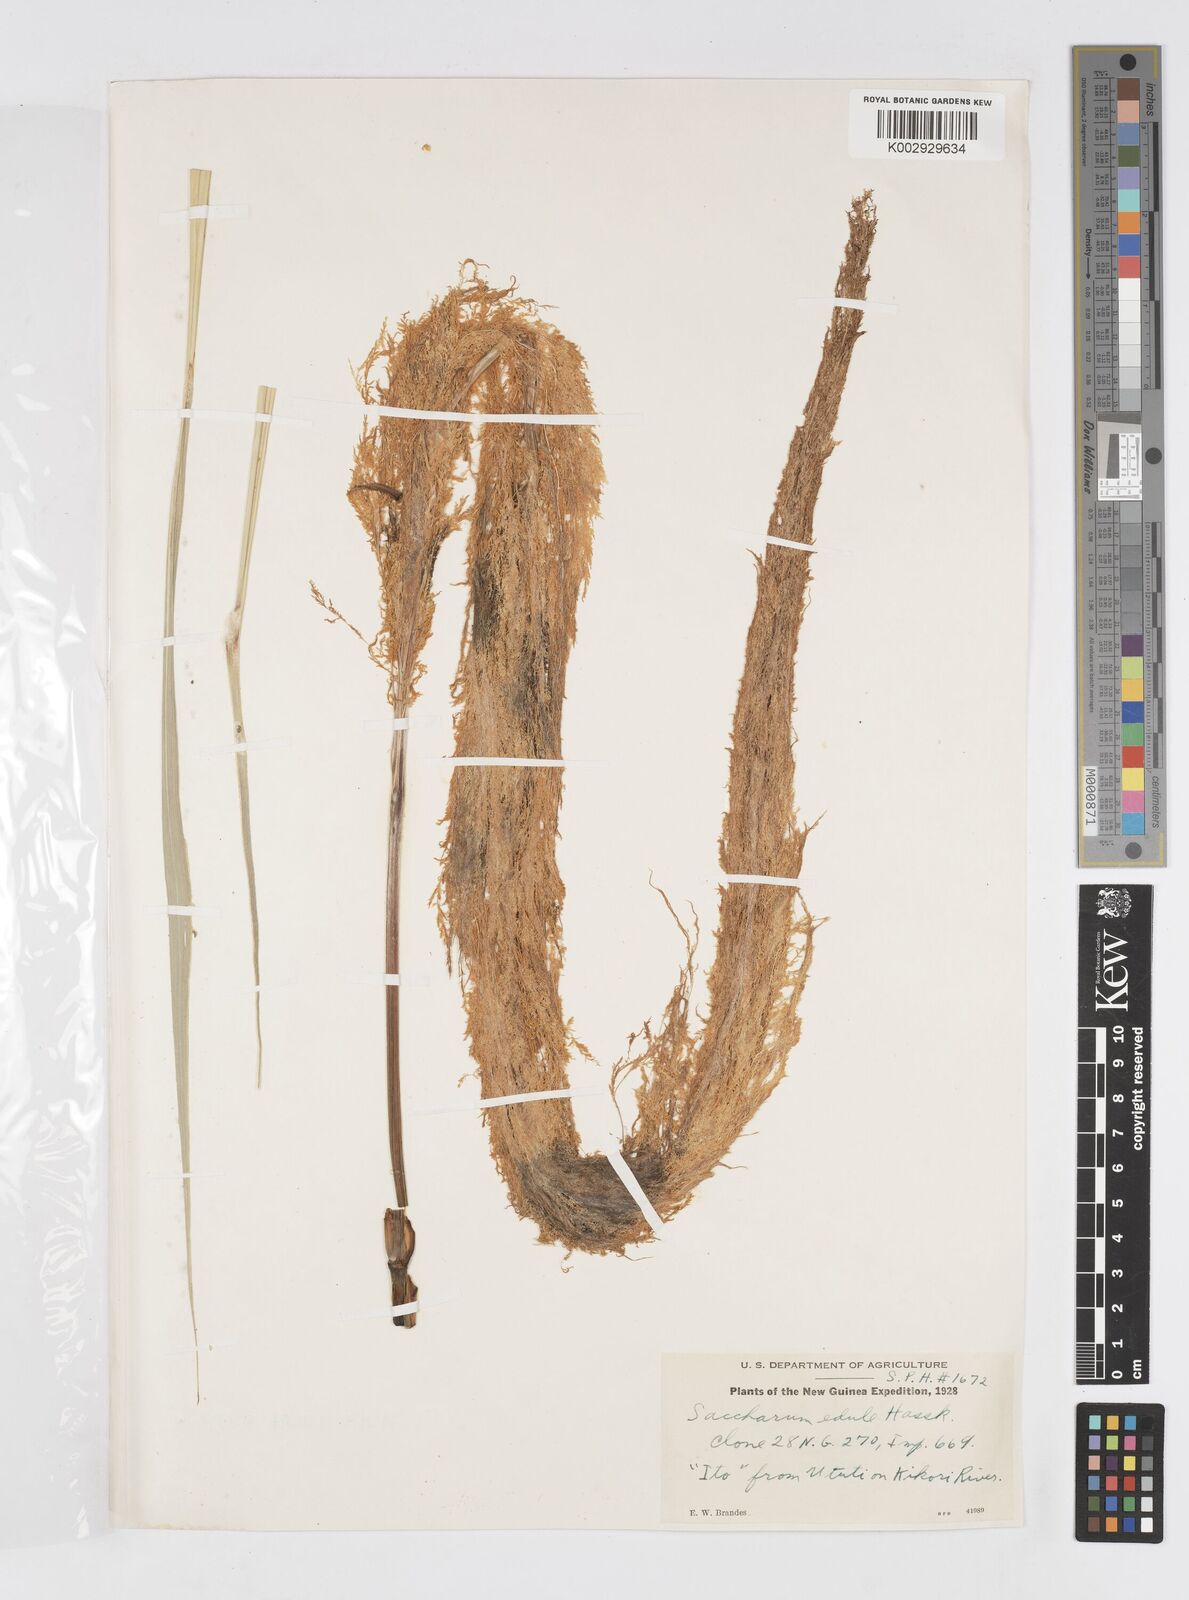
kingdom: Plantae
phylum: Tracheophyta
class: Liliopsida
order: Poales
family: Poaceae
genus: Saccharum
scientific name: Saccharum edule
